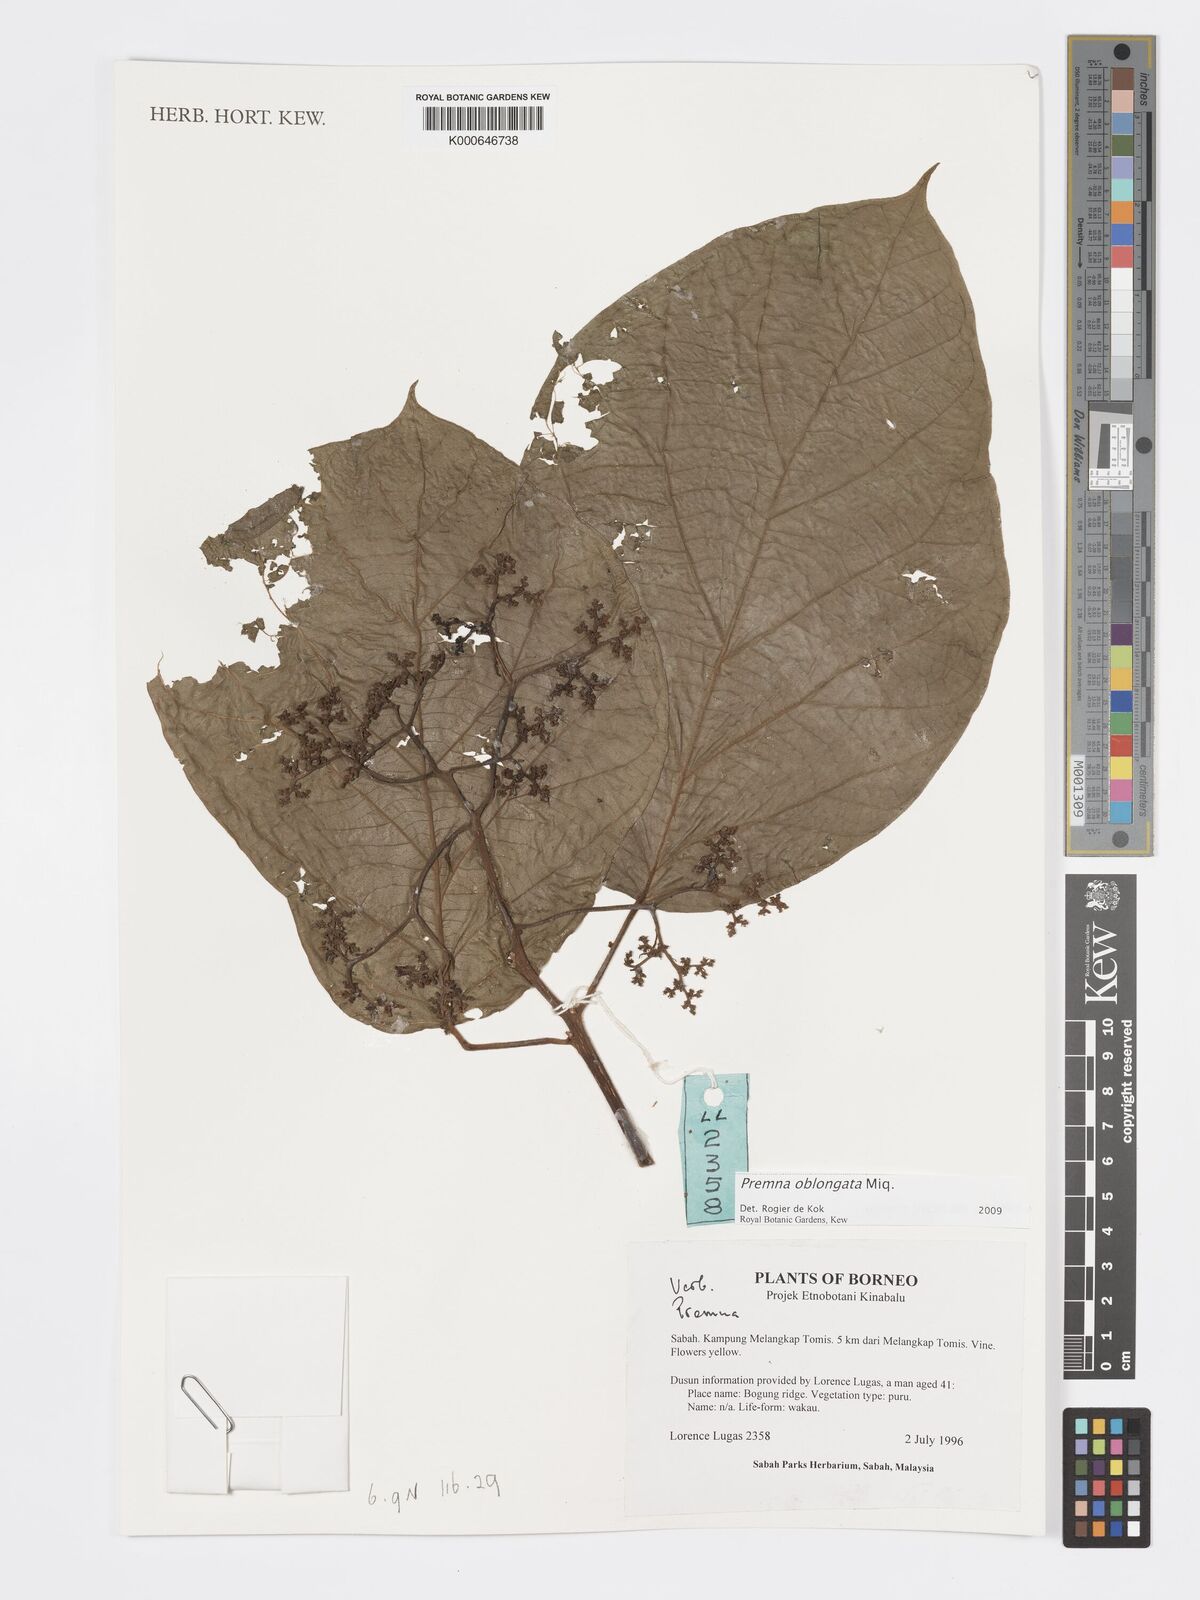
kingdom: Plantae
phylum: Tracheophyta
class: Magnoliopsida
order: Lamiales
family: Lamiaceae
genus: Premna
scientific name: Premna oblongata
